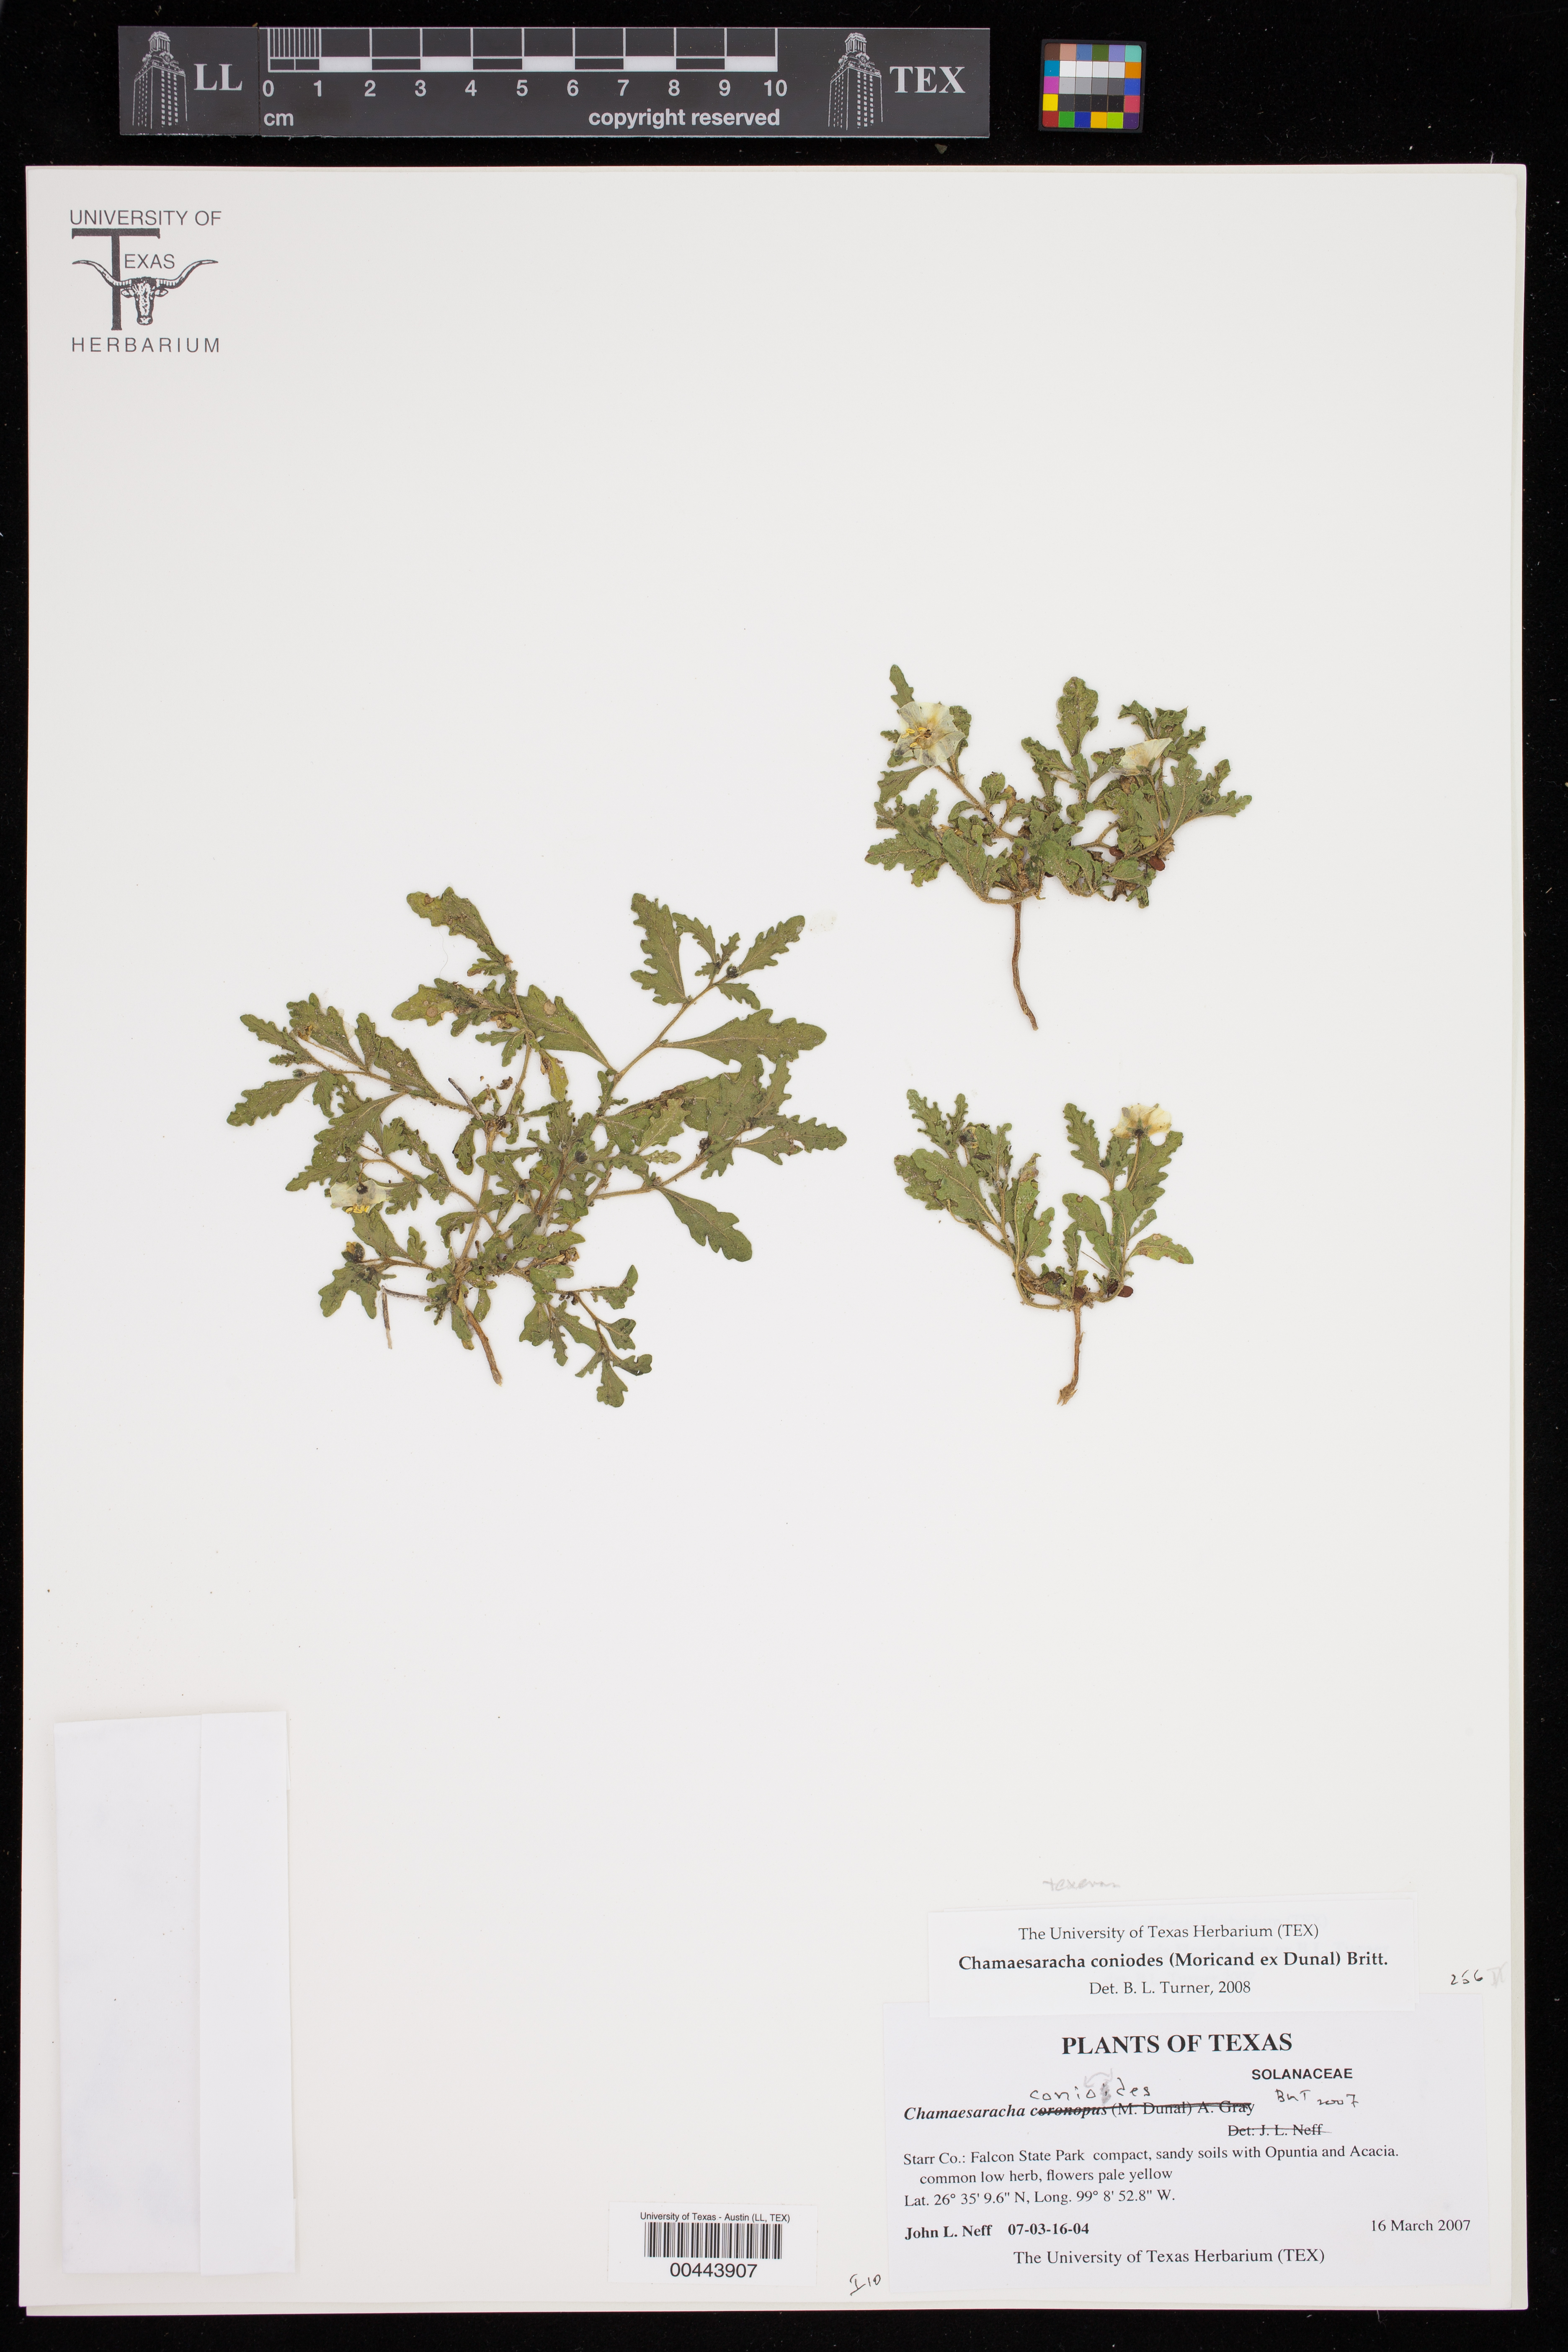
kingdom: Plantae
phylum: Tracheophyta
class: Magnoliopsida
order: Solanales
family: Solanaceae
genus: Chamaesaracha
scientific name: Chamaesaracha texensis
